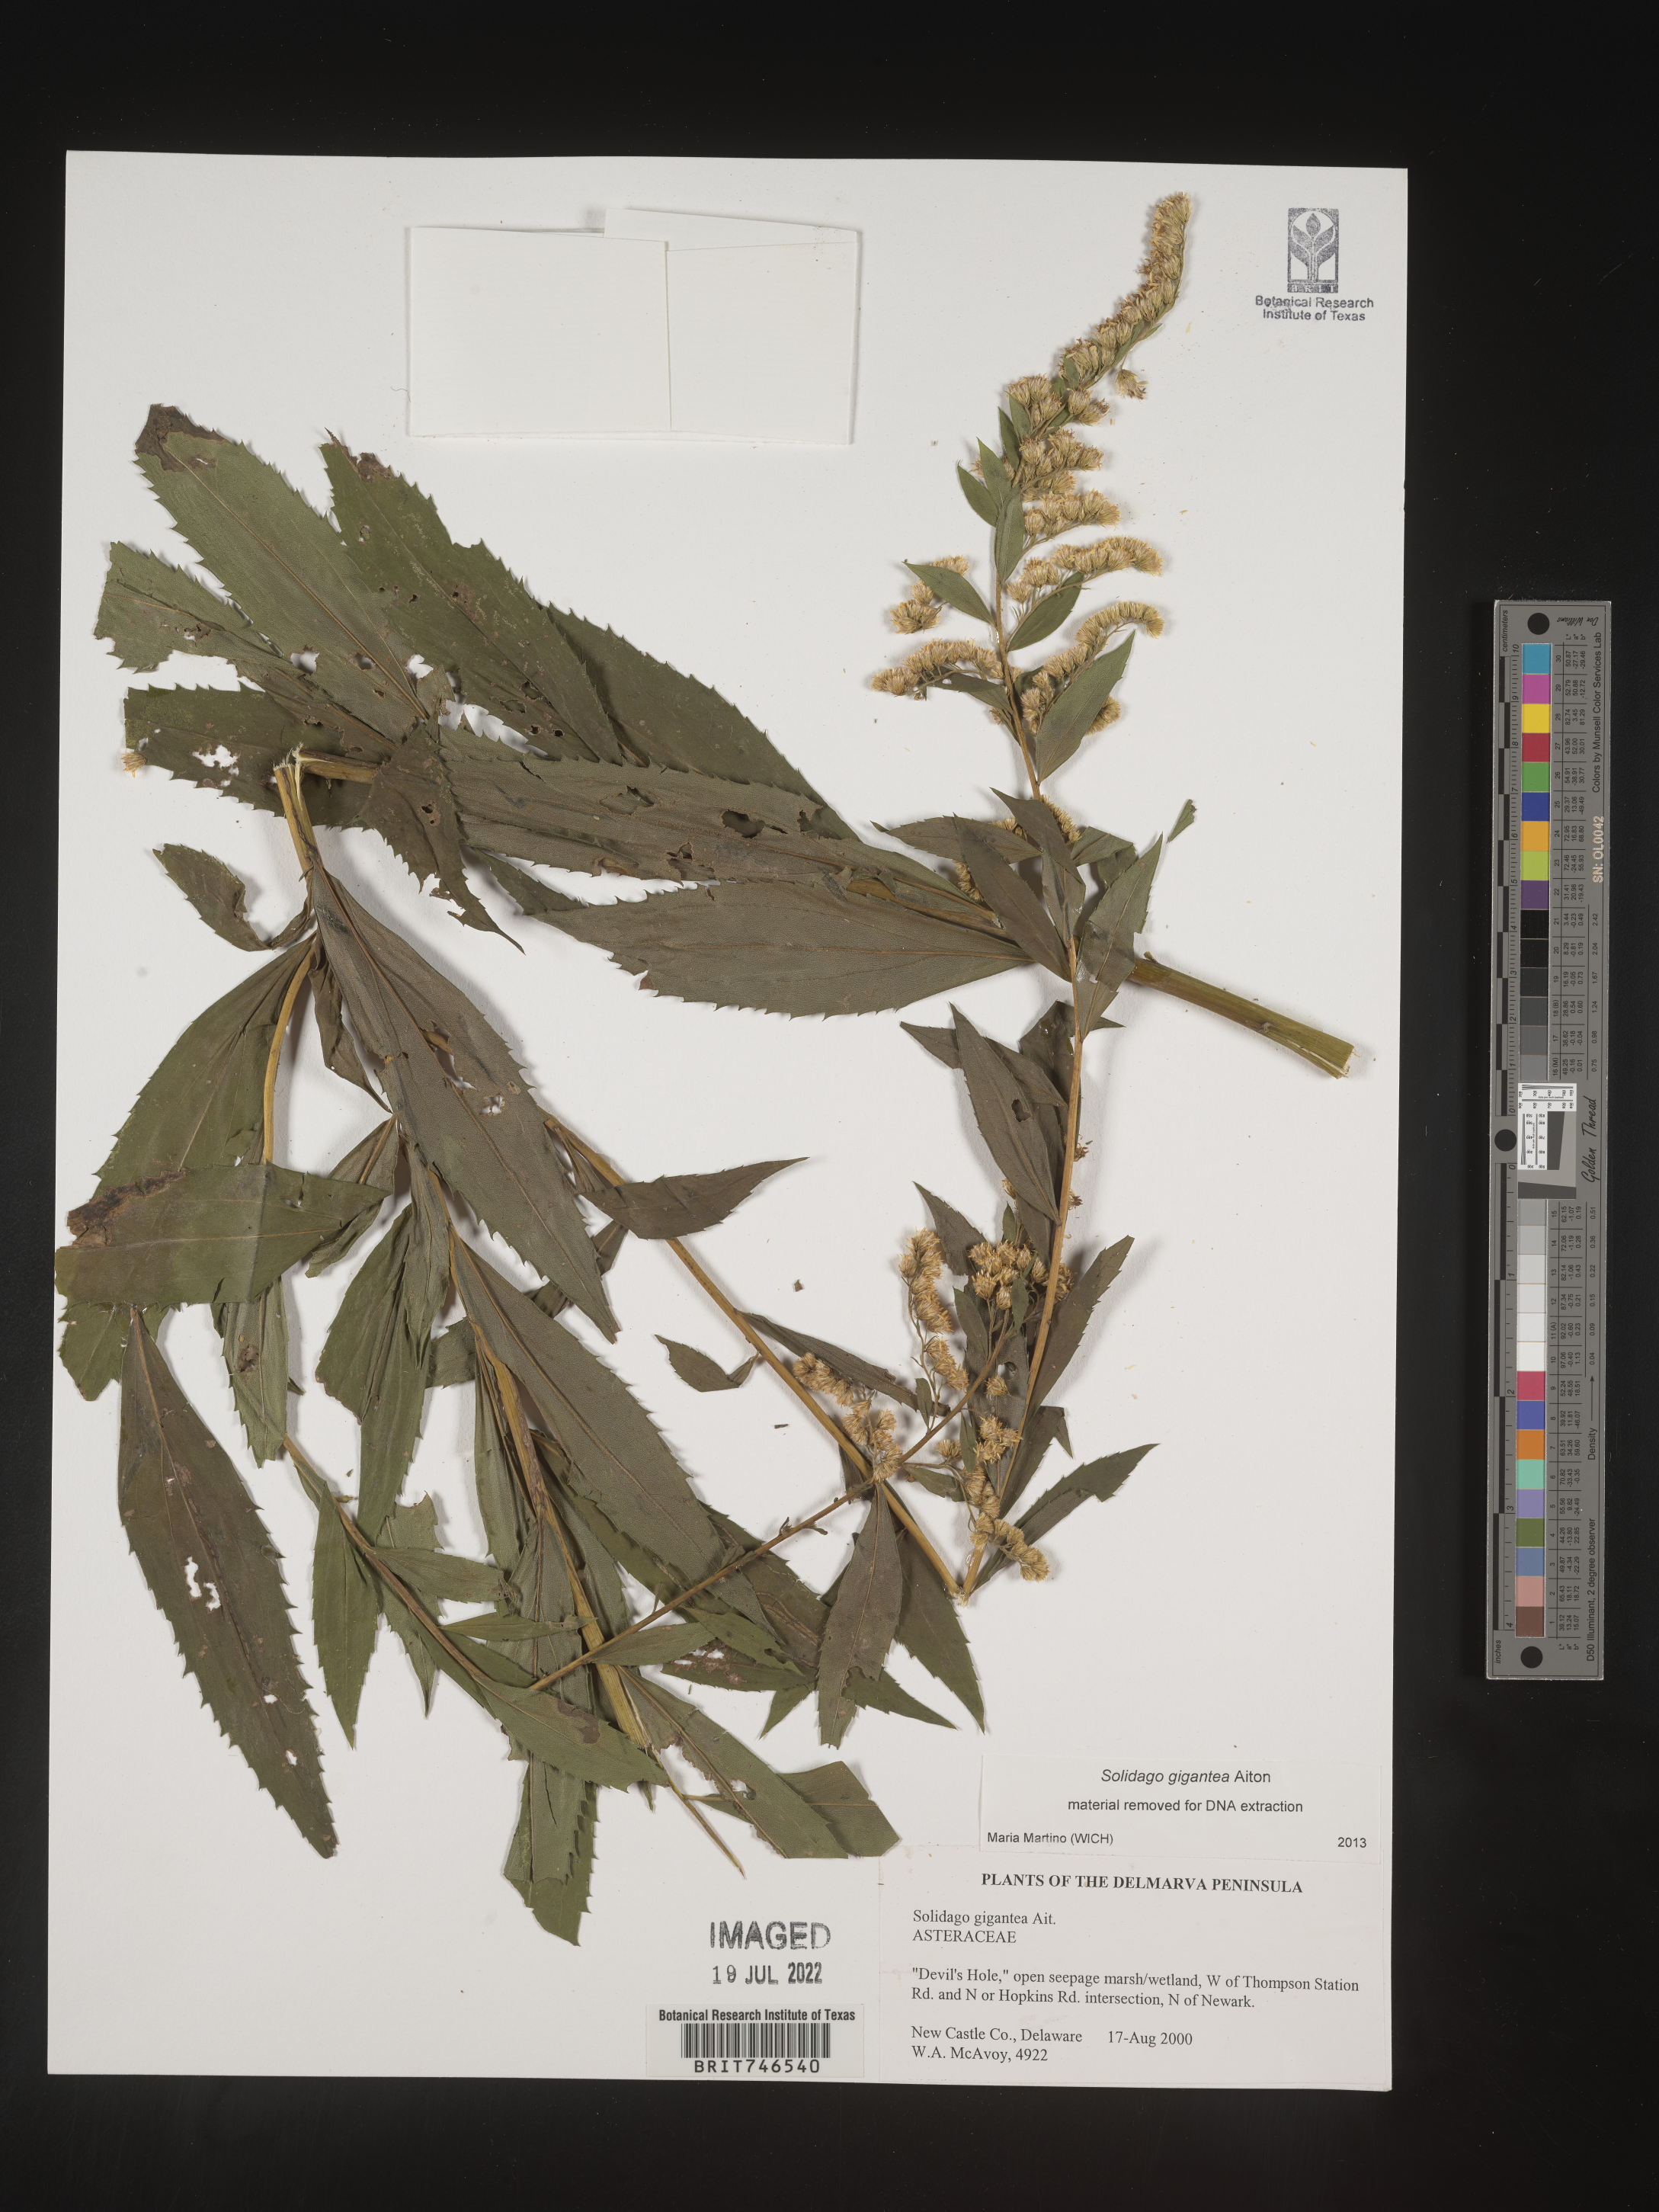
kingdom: Plantae
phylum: Tracheophyta
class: Magnoliopsida
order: Asterales
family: Asteraceae
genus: Solidago
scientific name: Solidago gigantea
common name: Giant goldenrod
